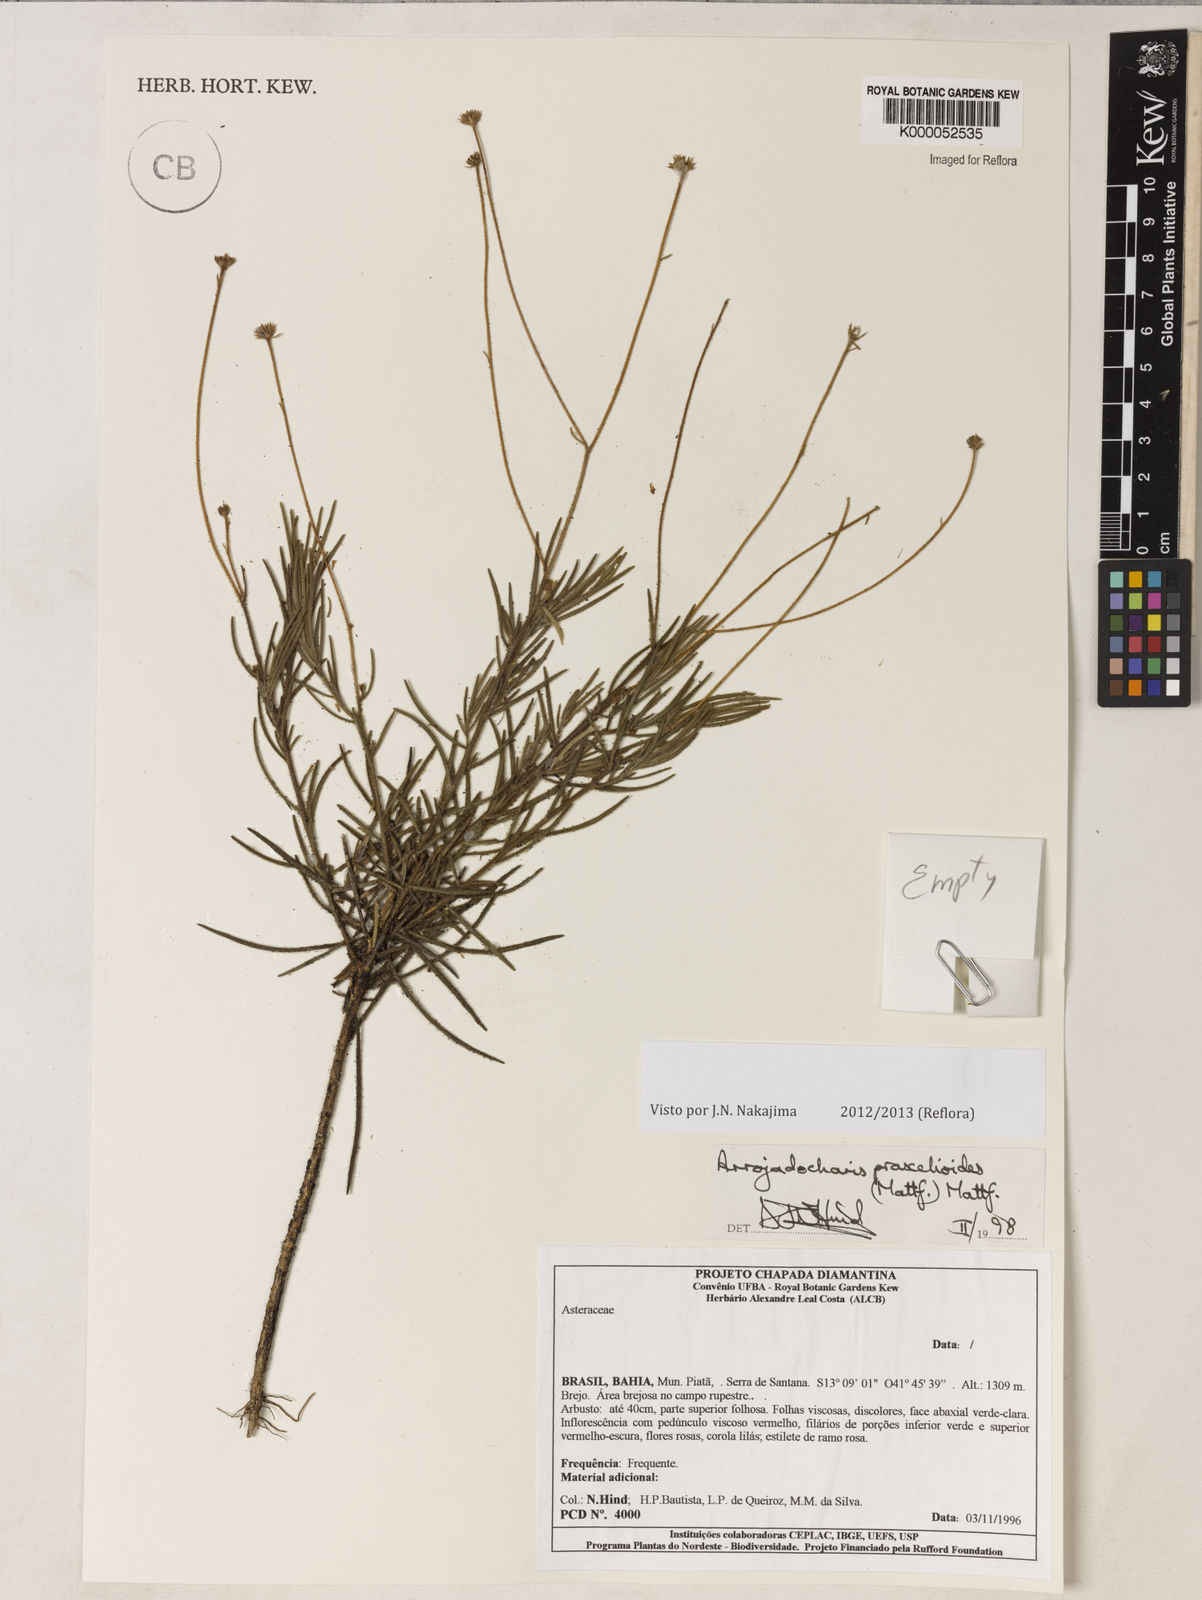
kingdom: Plantae
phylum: Tracheophyta
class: Magnoliopsida
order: Asterales
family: Asteraceae
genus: Arrojadocharis
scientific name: Arrojadocharis praxeloides
